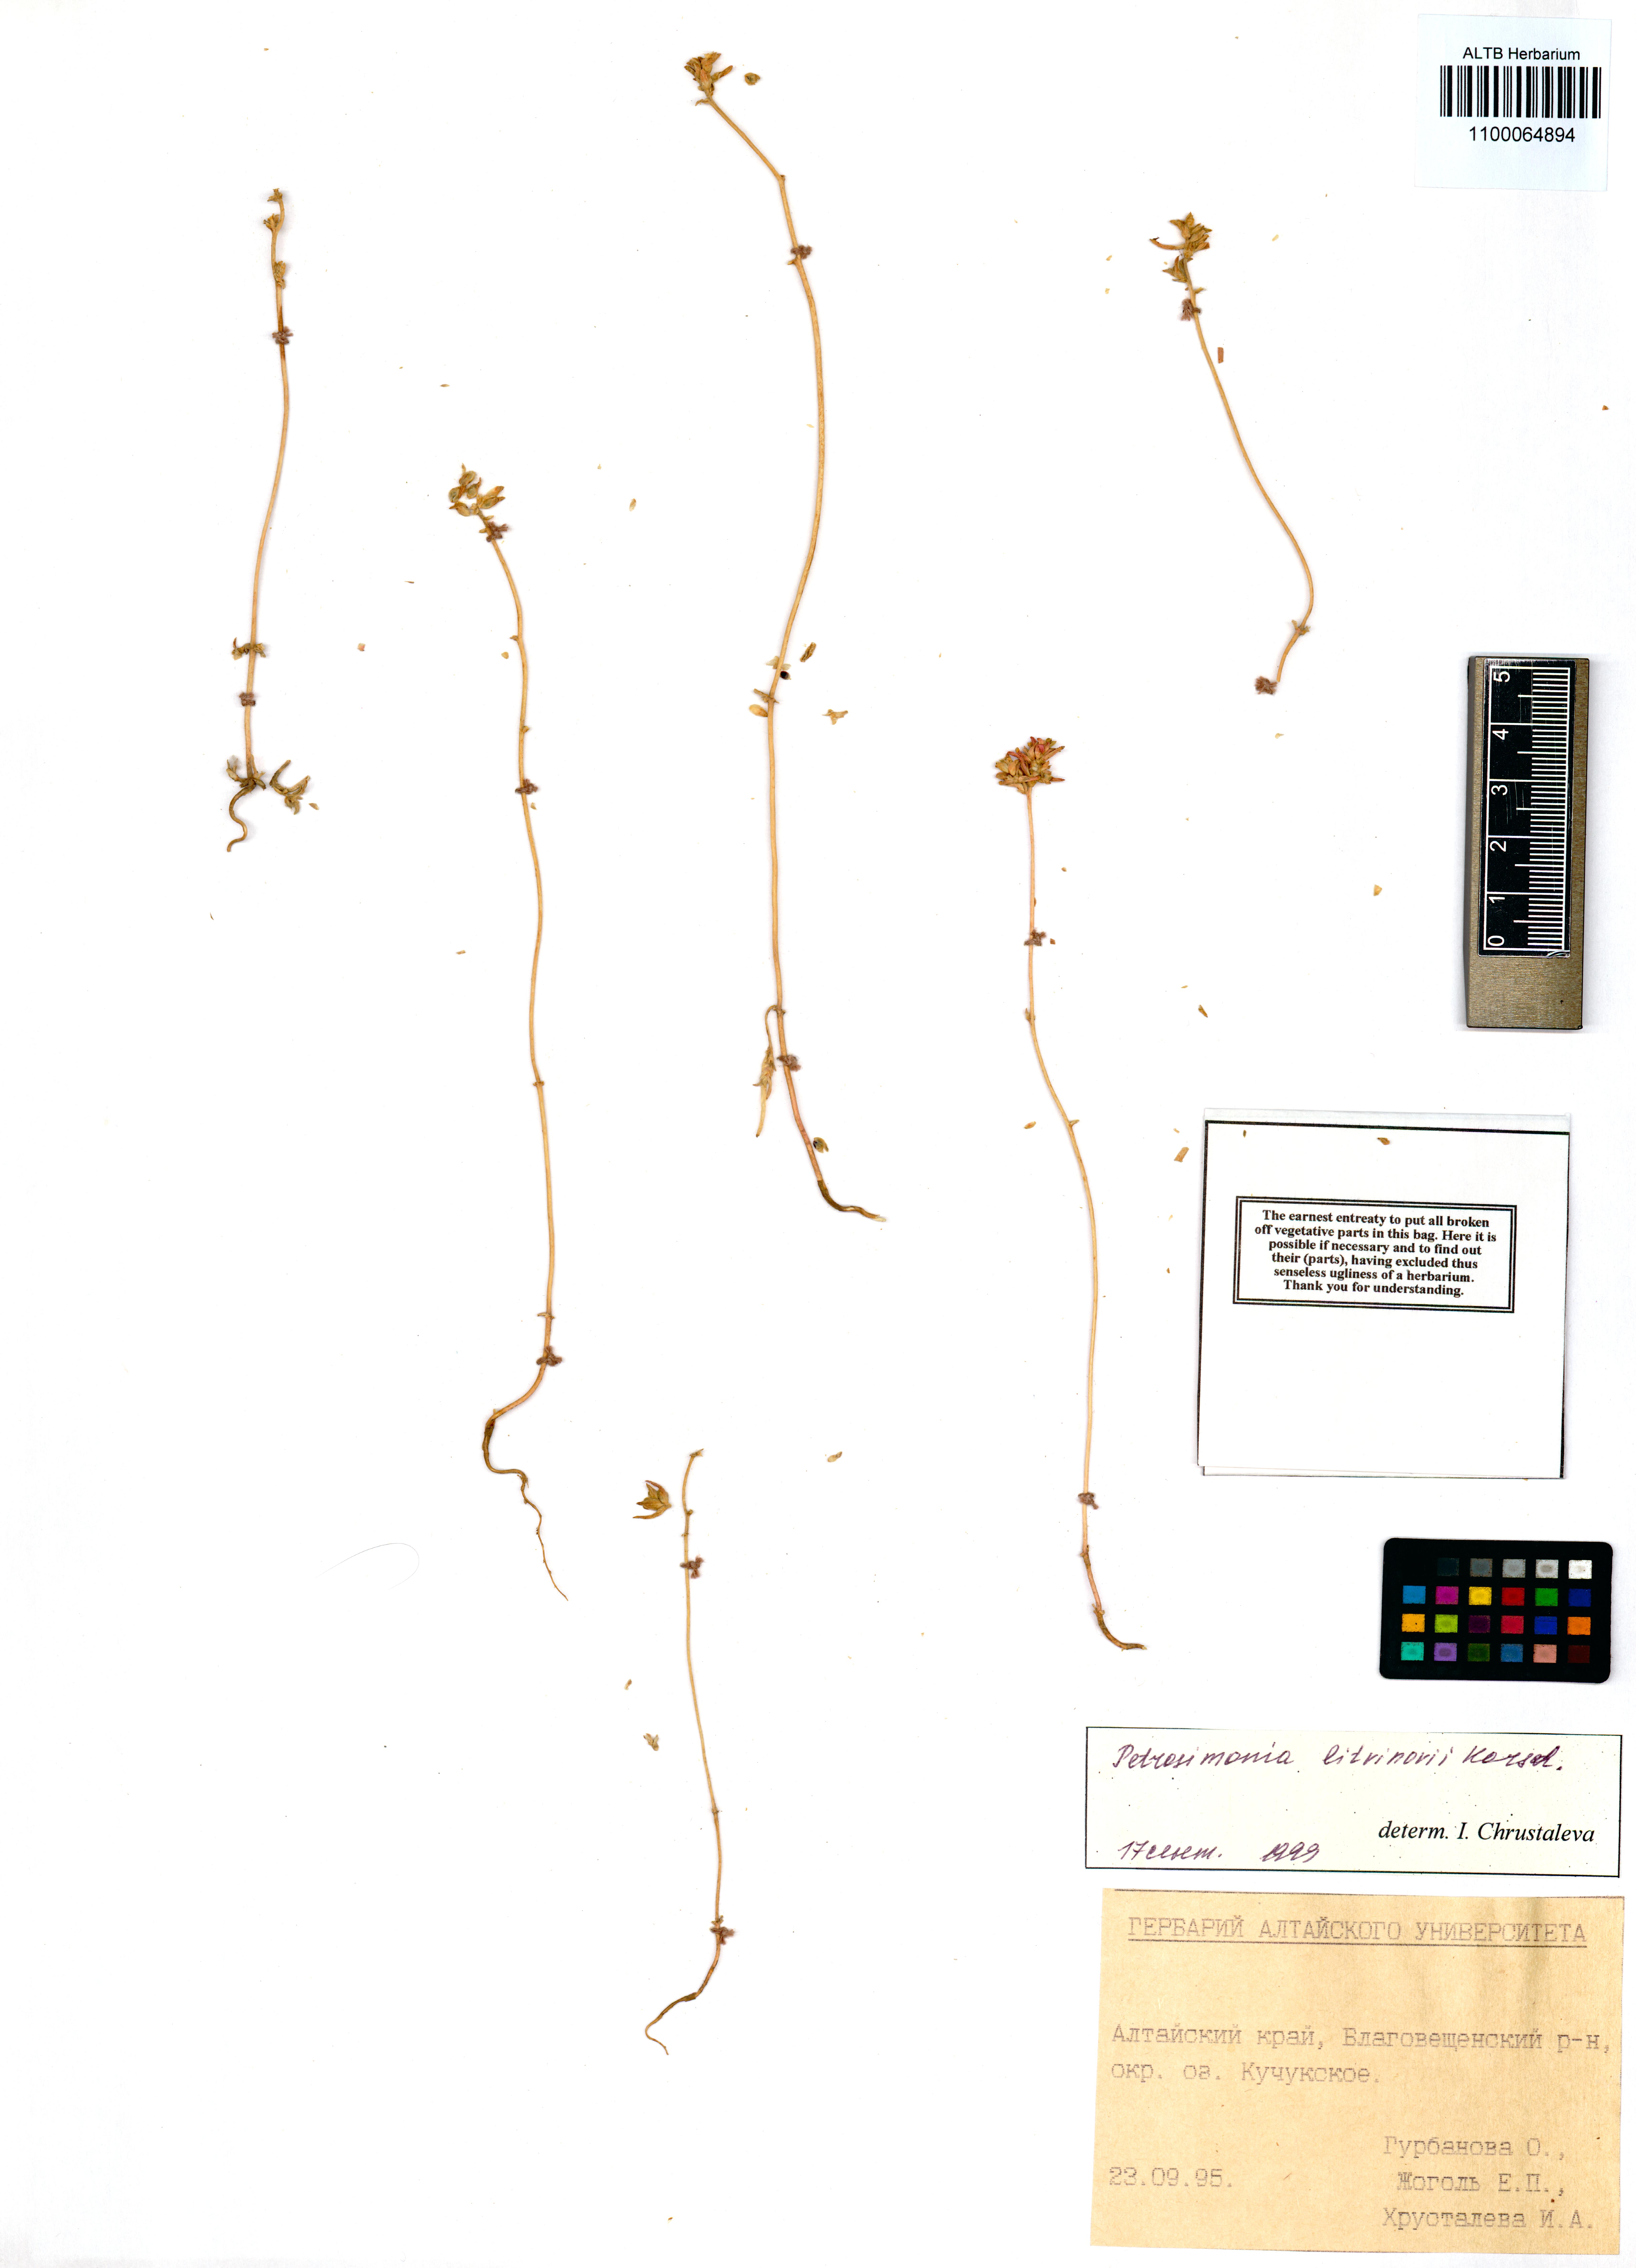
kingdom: Plantae
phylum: Tracheophyta
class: Magnoliopsida
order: Caryophyllales
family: Amaranthaceae
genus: Petrosimonia
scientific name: Petrosimonia litvinowi
